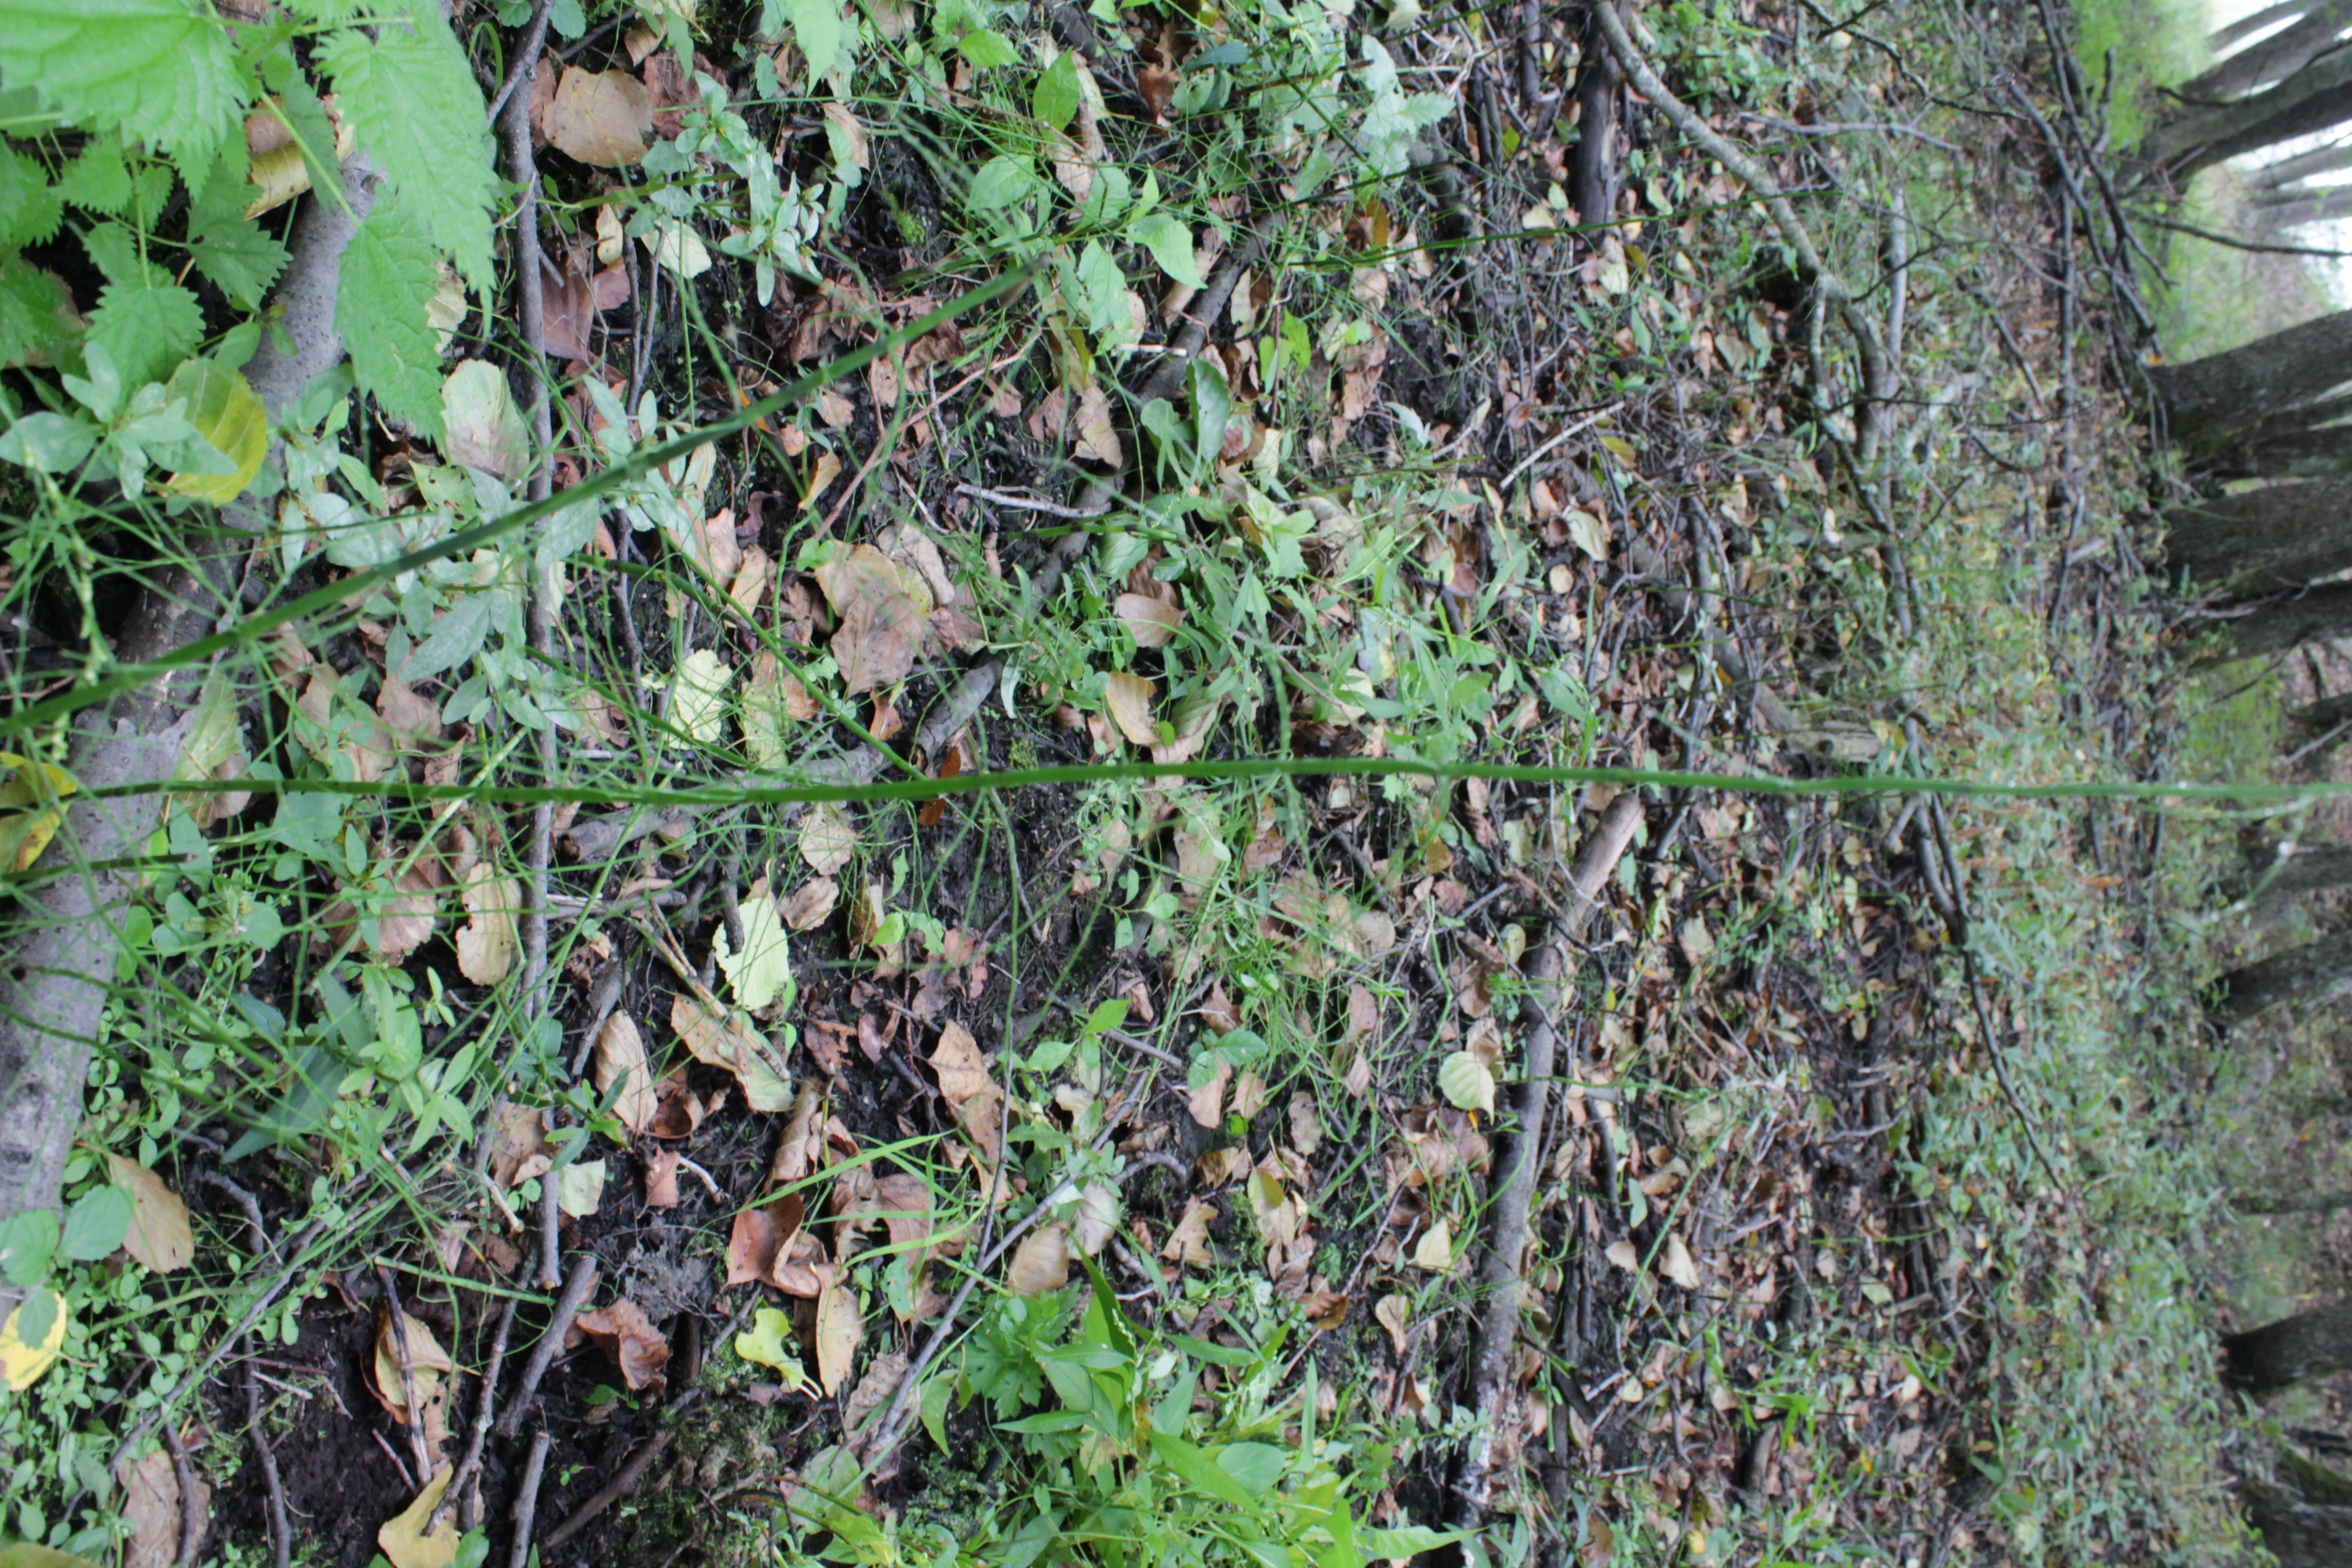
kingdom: Plantae
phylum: Tracheophyta
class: Polypodiopsida
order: Equisetales
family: Equisetaceae
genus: Equisetum
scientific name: Equisetum fluviatile
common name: Water horsetail
